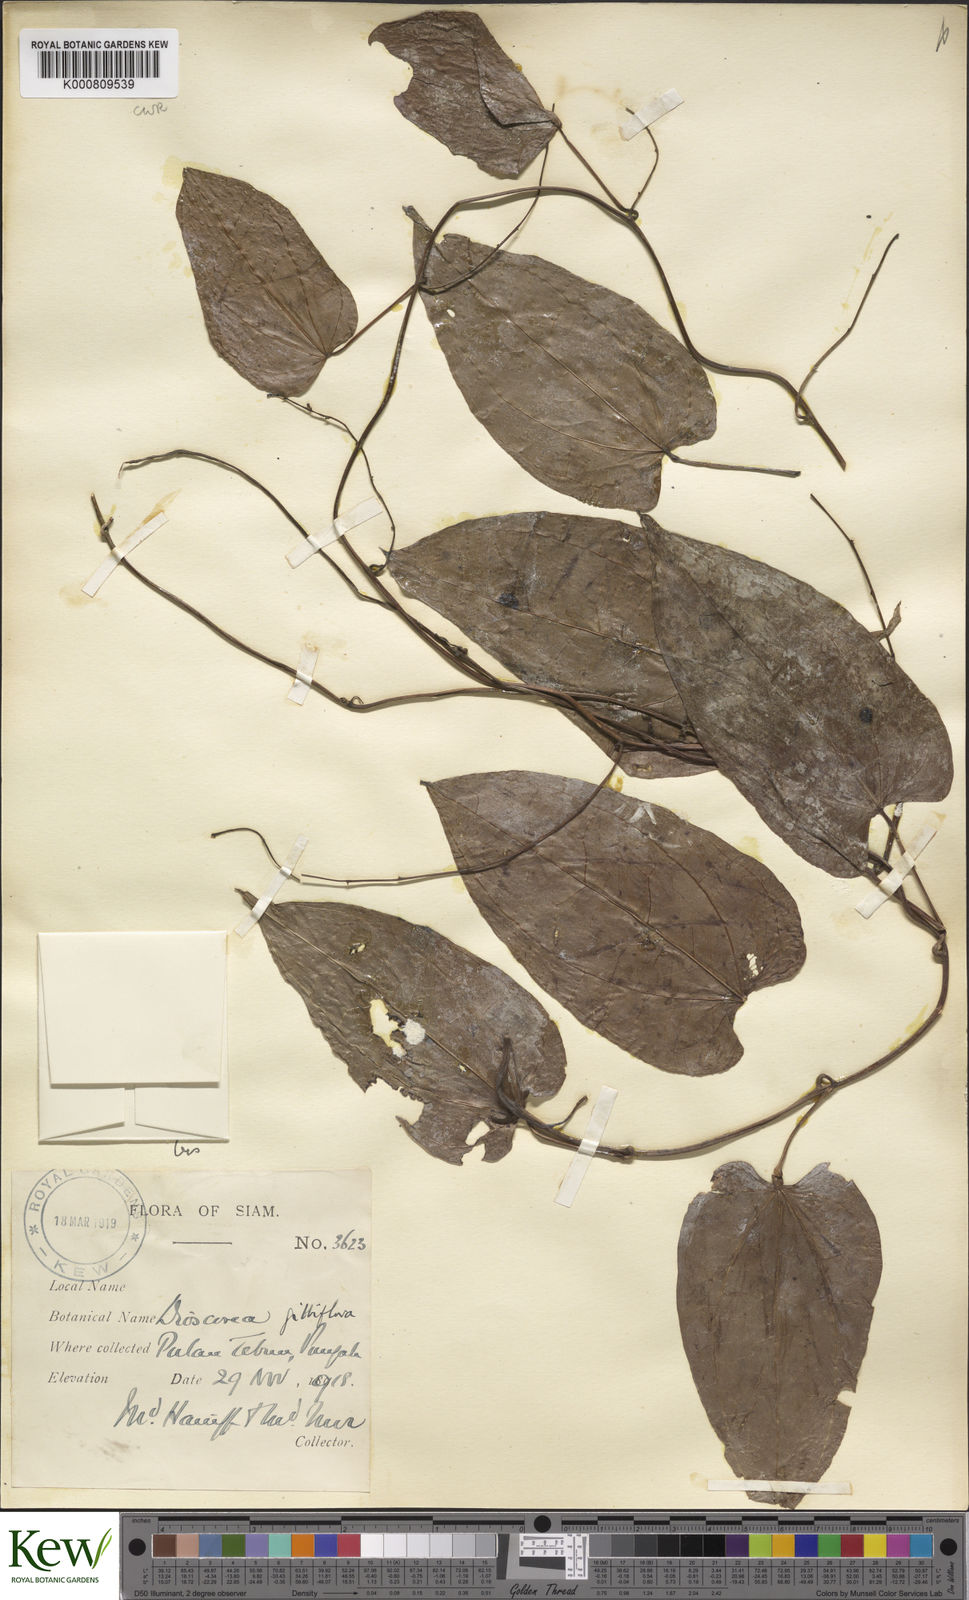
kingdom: Plantae
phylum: Tracheophyta
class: Liliopsida
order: Dioscoreales
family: Dioscoreaceae
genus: Dioscorea
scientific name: Dioscorea filiformis
